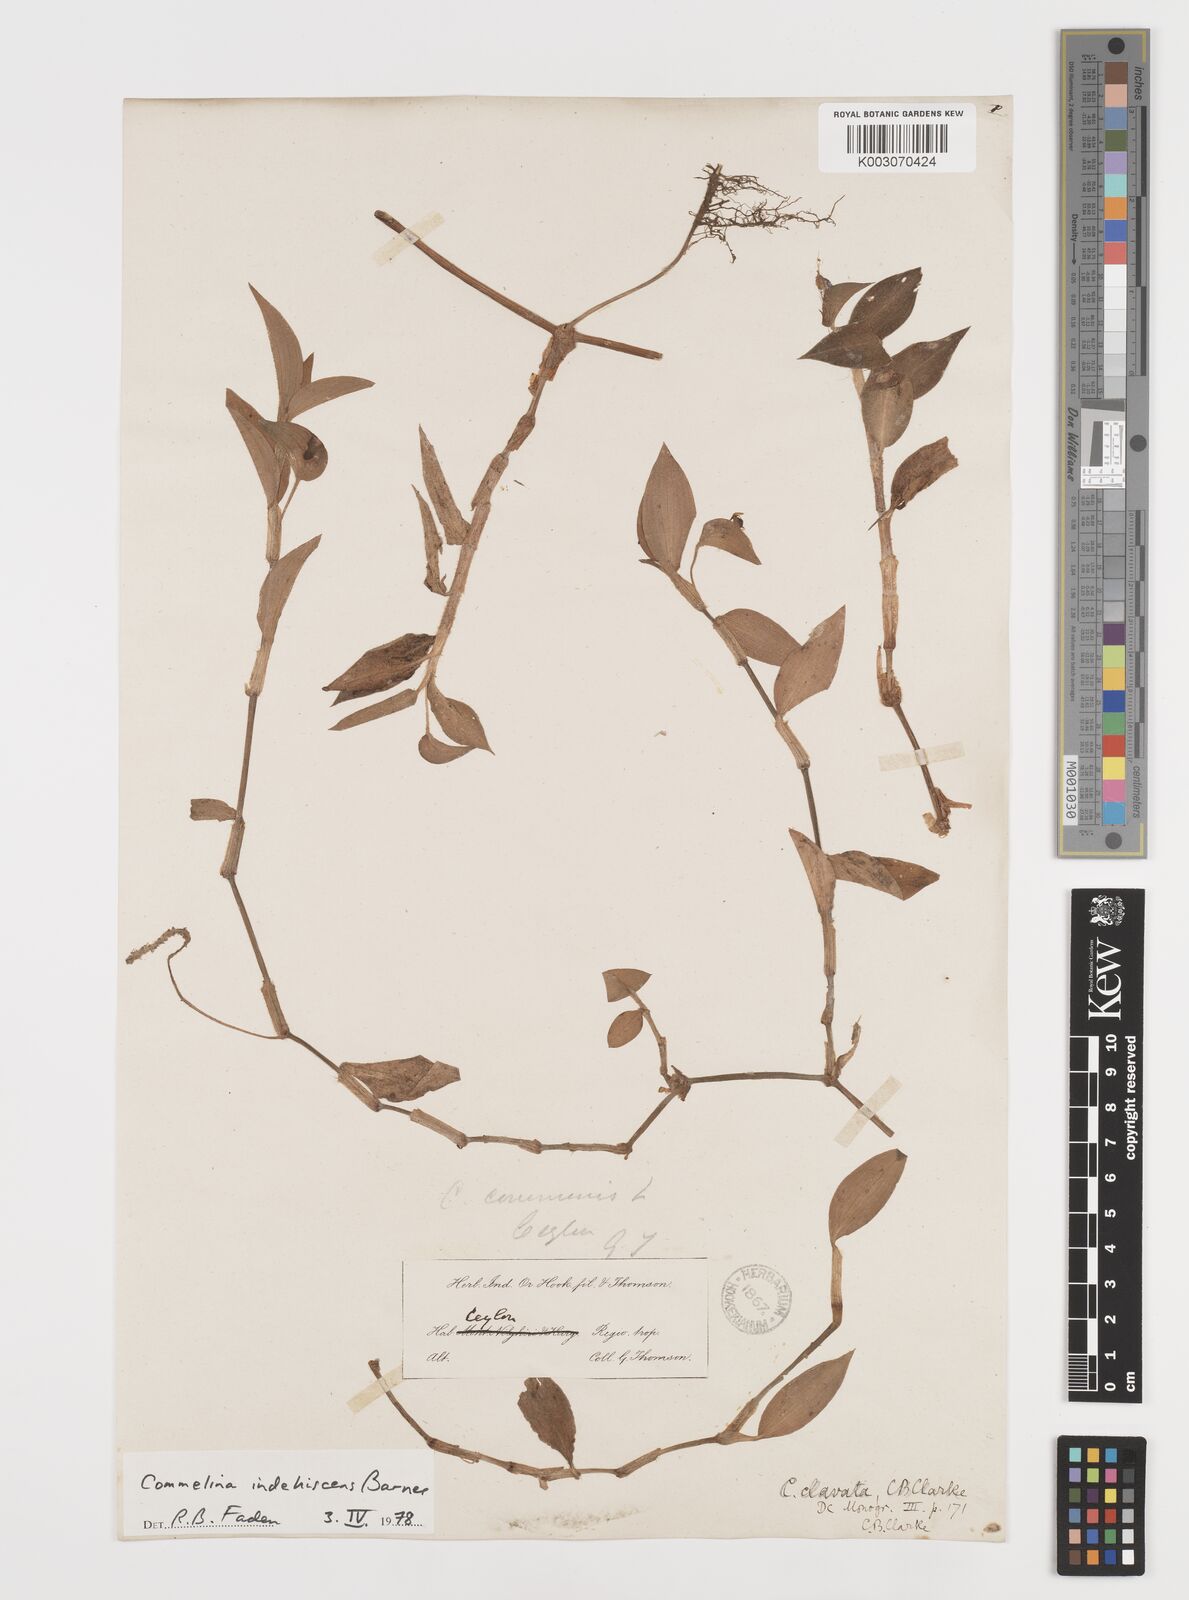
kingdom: Plantae
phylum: Tracheophyta
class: Liliopsida
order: Commelinales
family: Commelinaceae
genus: Commelina
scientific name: Commelina indehiscens
